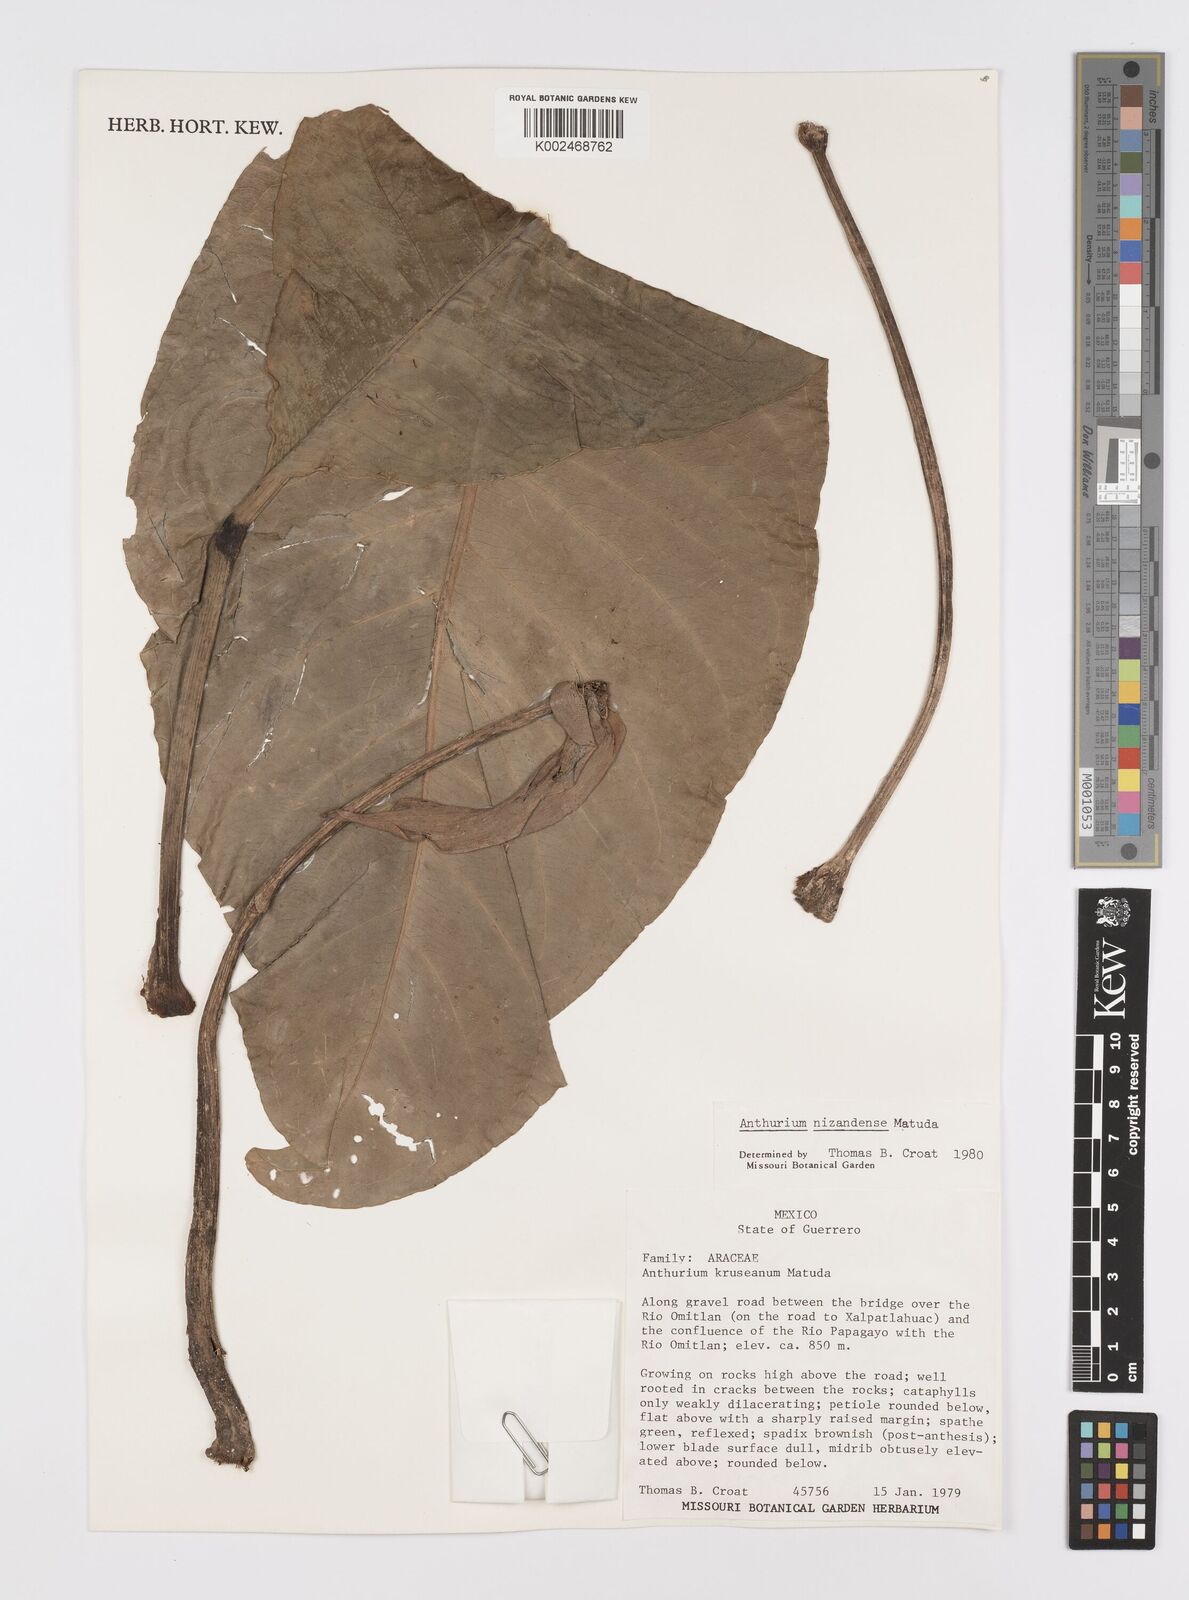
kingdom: Plantae
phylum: Tracheophyta
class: Liliopsida
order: Alismatales
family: Araceae
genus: Anthurium
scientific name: Anthurium nizandense
